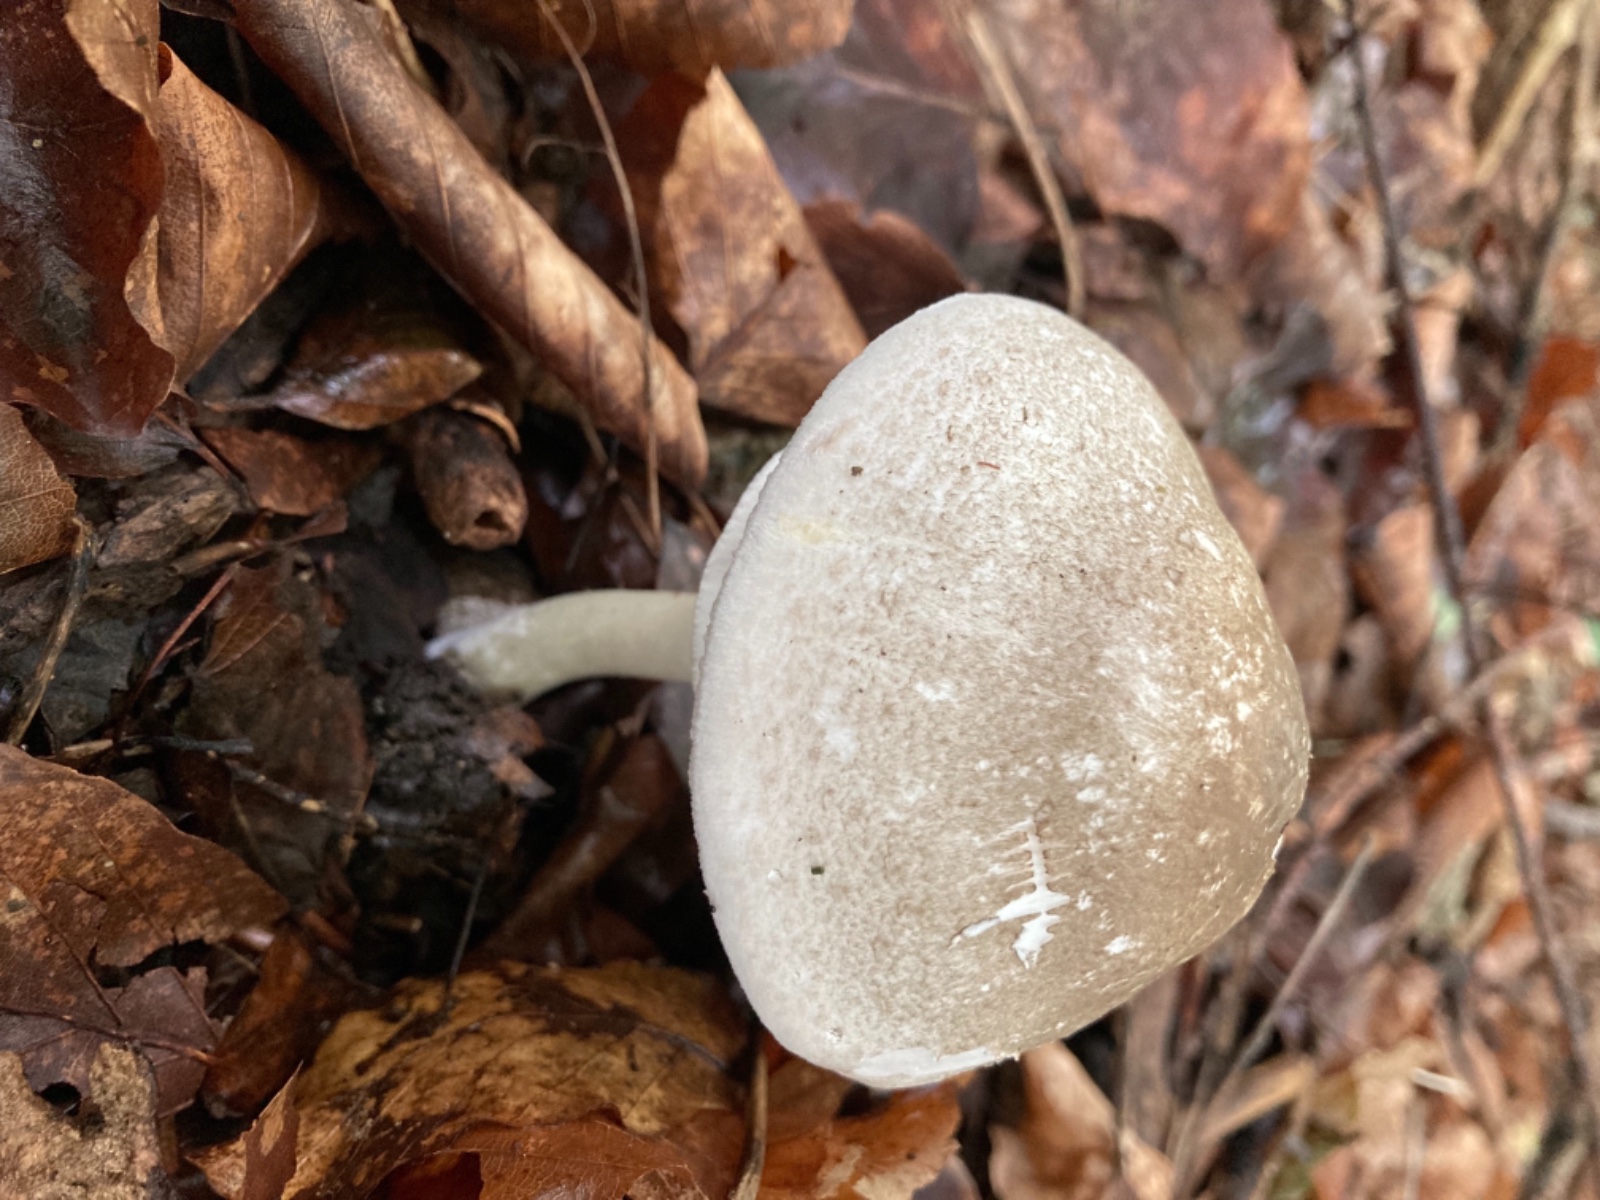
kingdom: Fungi
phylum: Basidiomycota
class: Agaricomycetes
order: Agaricales
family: Agaricaceae
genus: Agaricus
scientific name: Agaricus phaeolepidotus
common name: agerhøne-champignon
